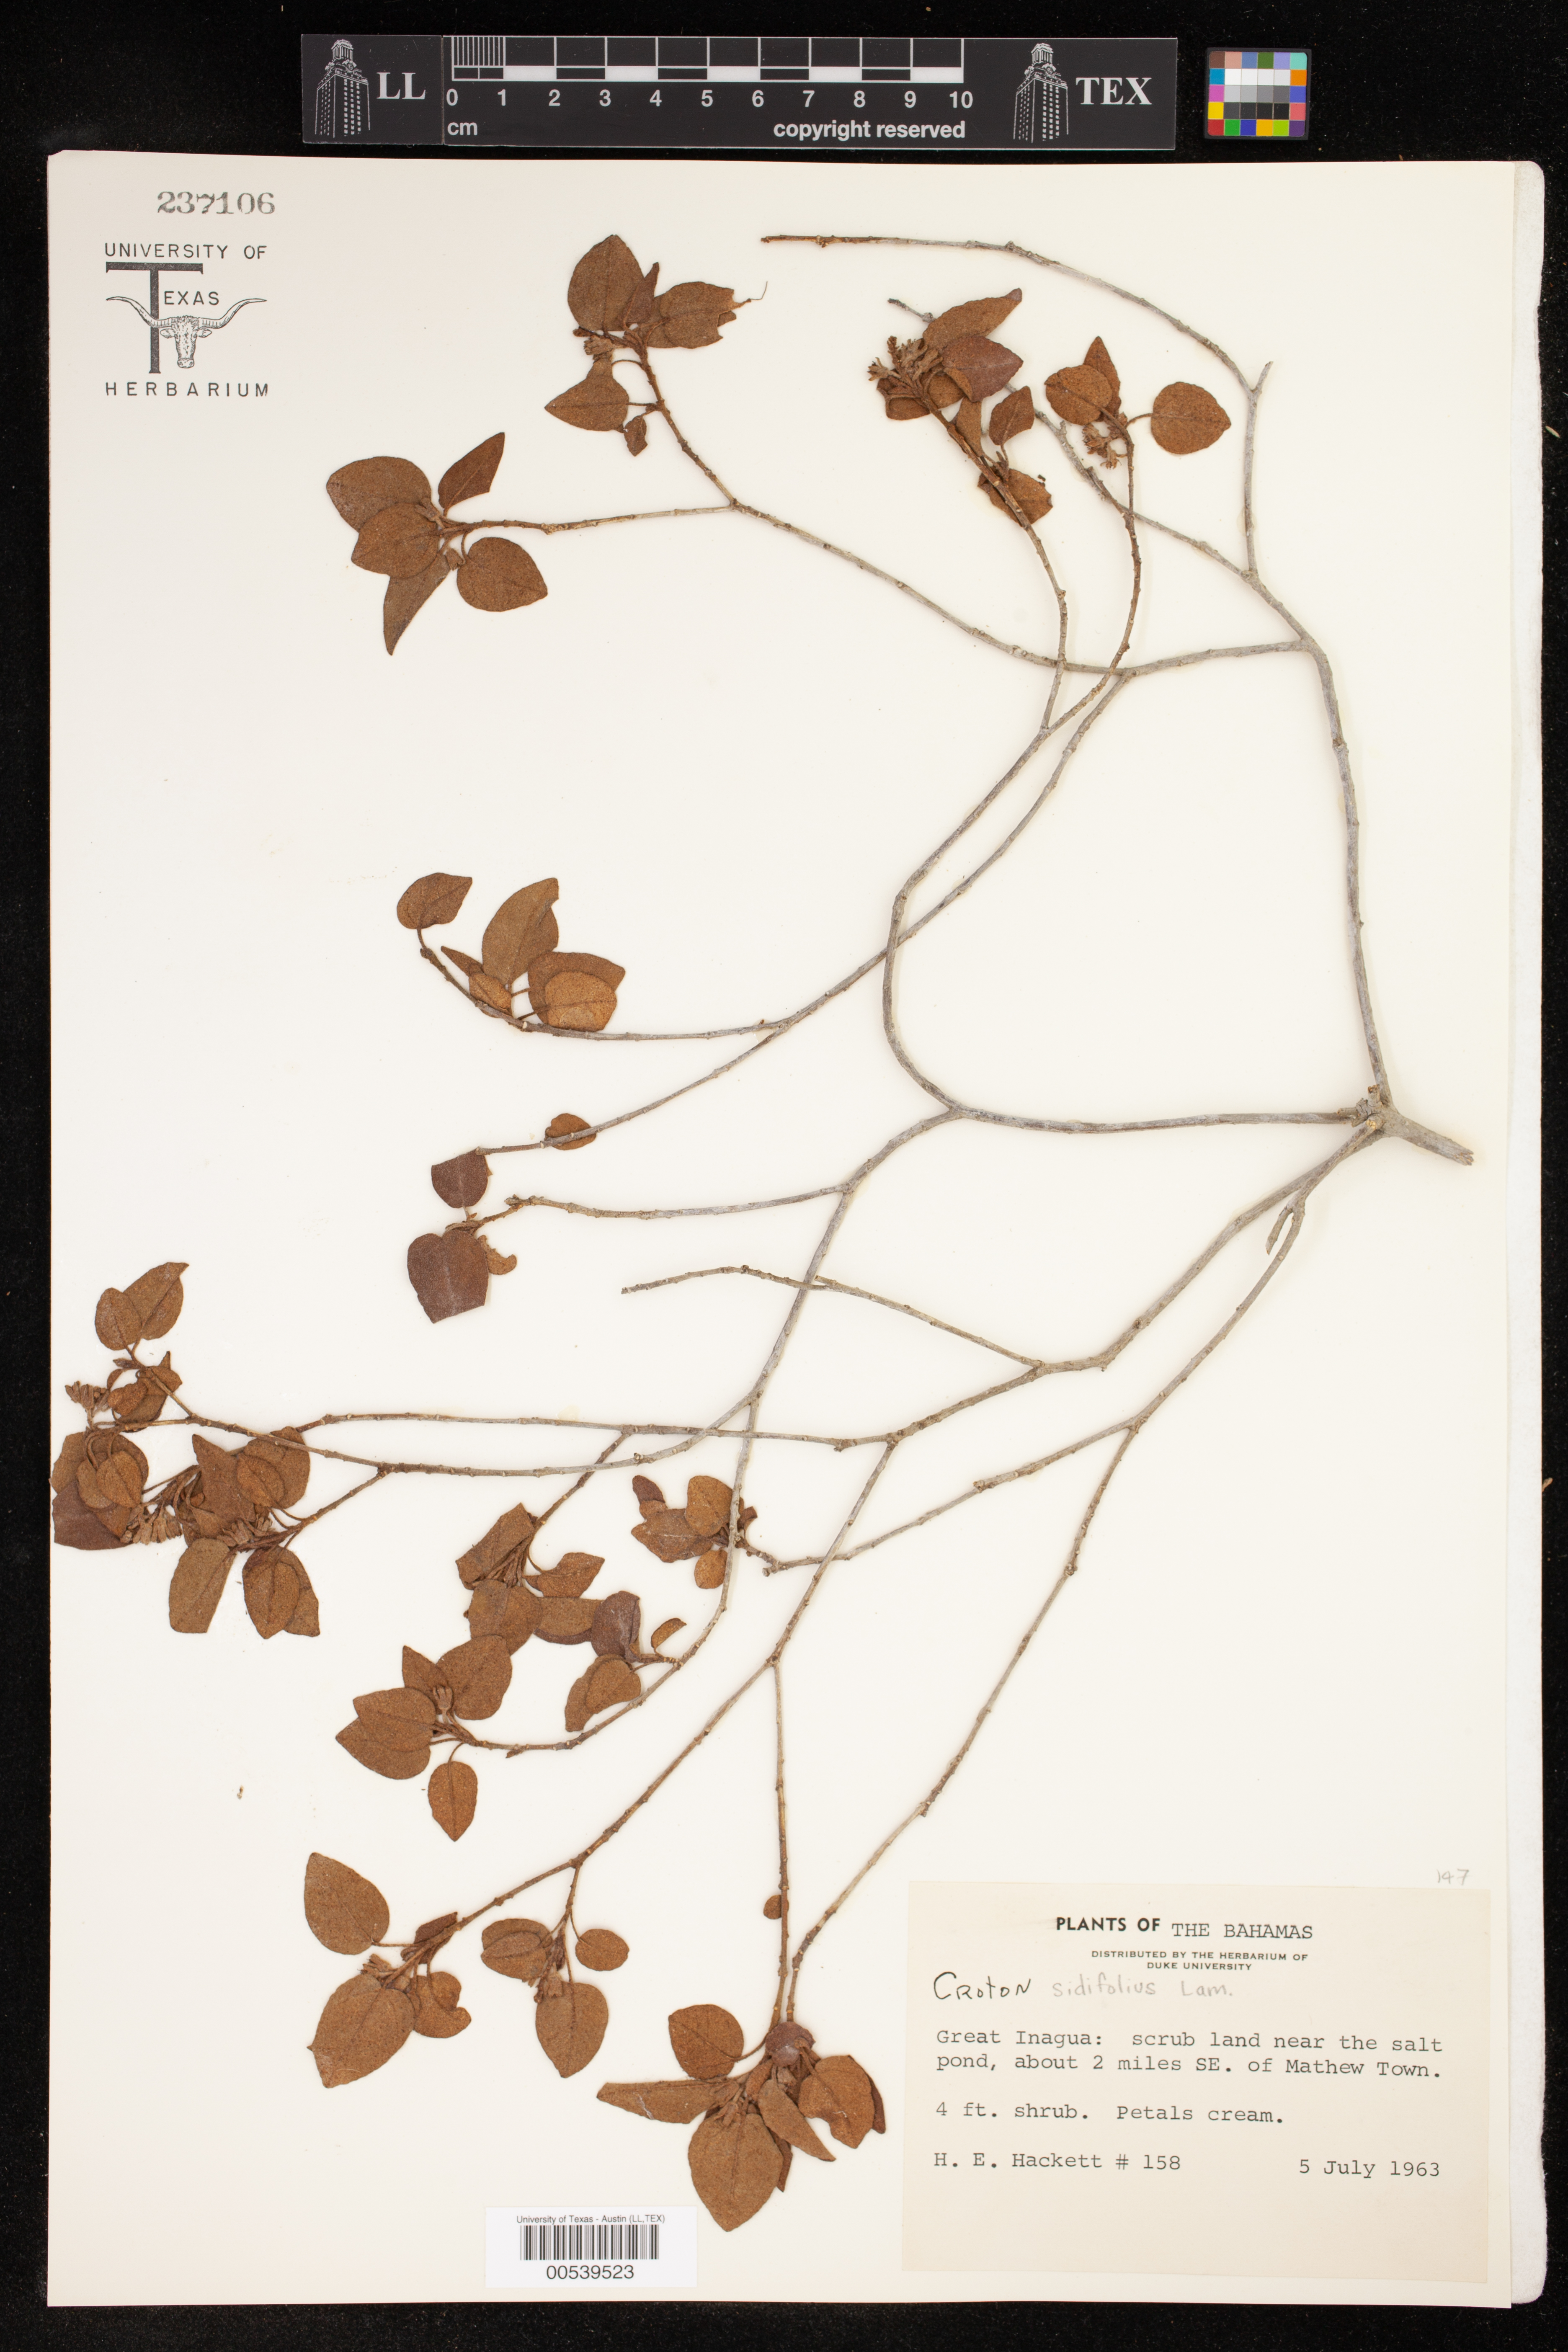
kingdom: Plantae
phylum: Tracheophyta
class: Magnoliopsida
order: Malpighiales
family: Euphorbiaceae
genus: Croton
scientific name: Croton sidifolius
